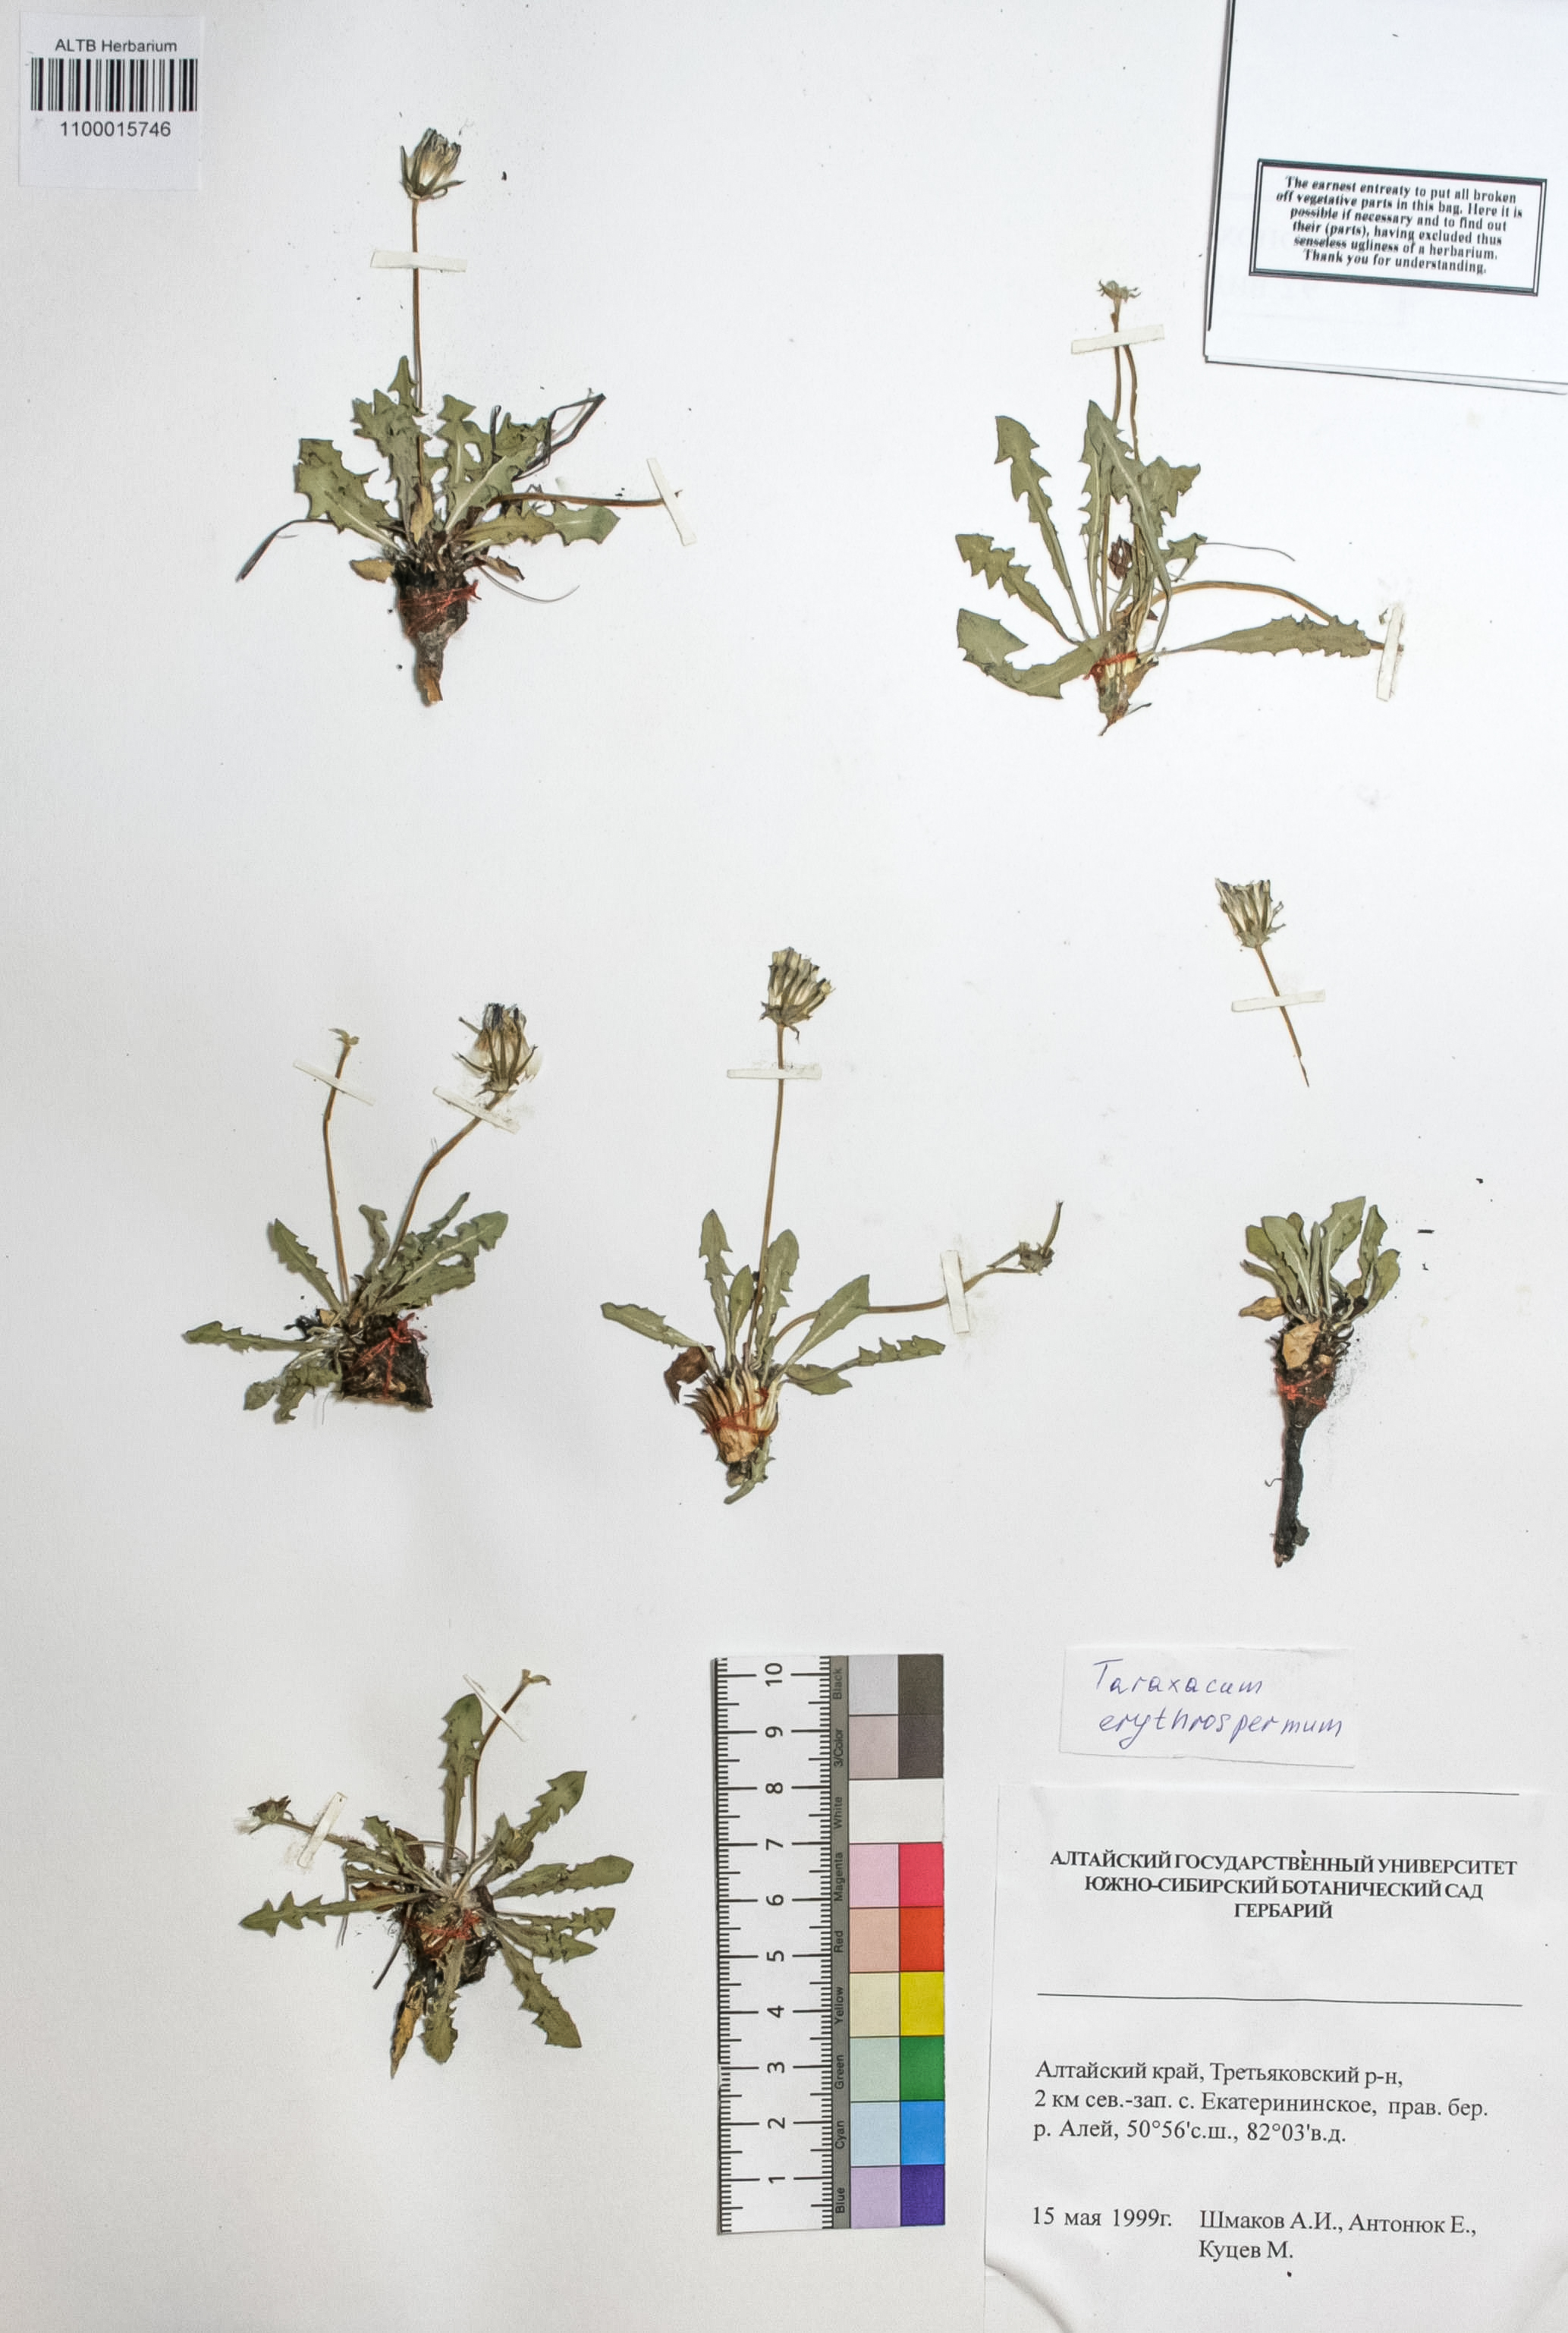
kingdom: Plantae
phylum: Tracheophyta
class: Magnoliopsida
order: Asterales
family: Asteraceae
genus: Taraxacum
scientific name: Taraxacum erythrospermum
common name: Rock dandelion
